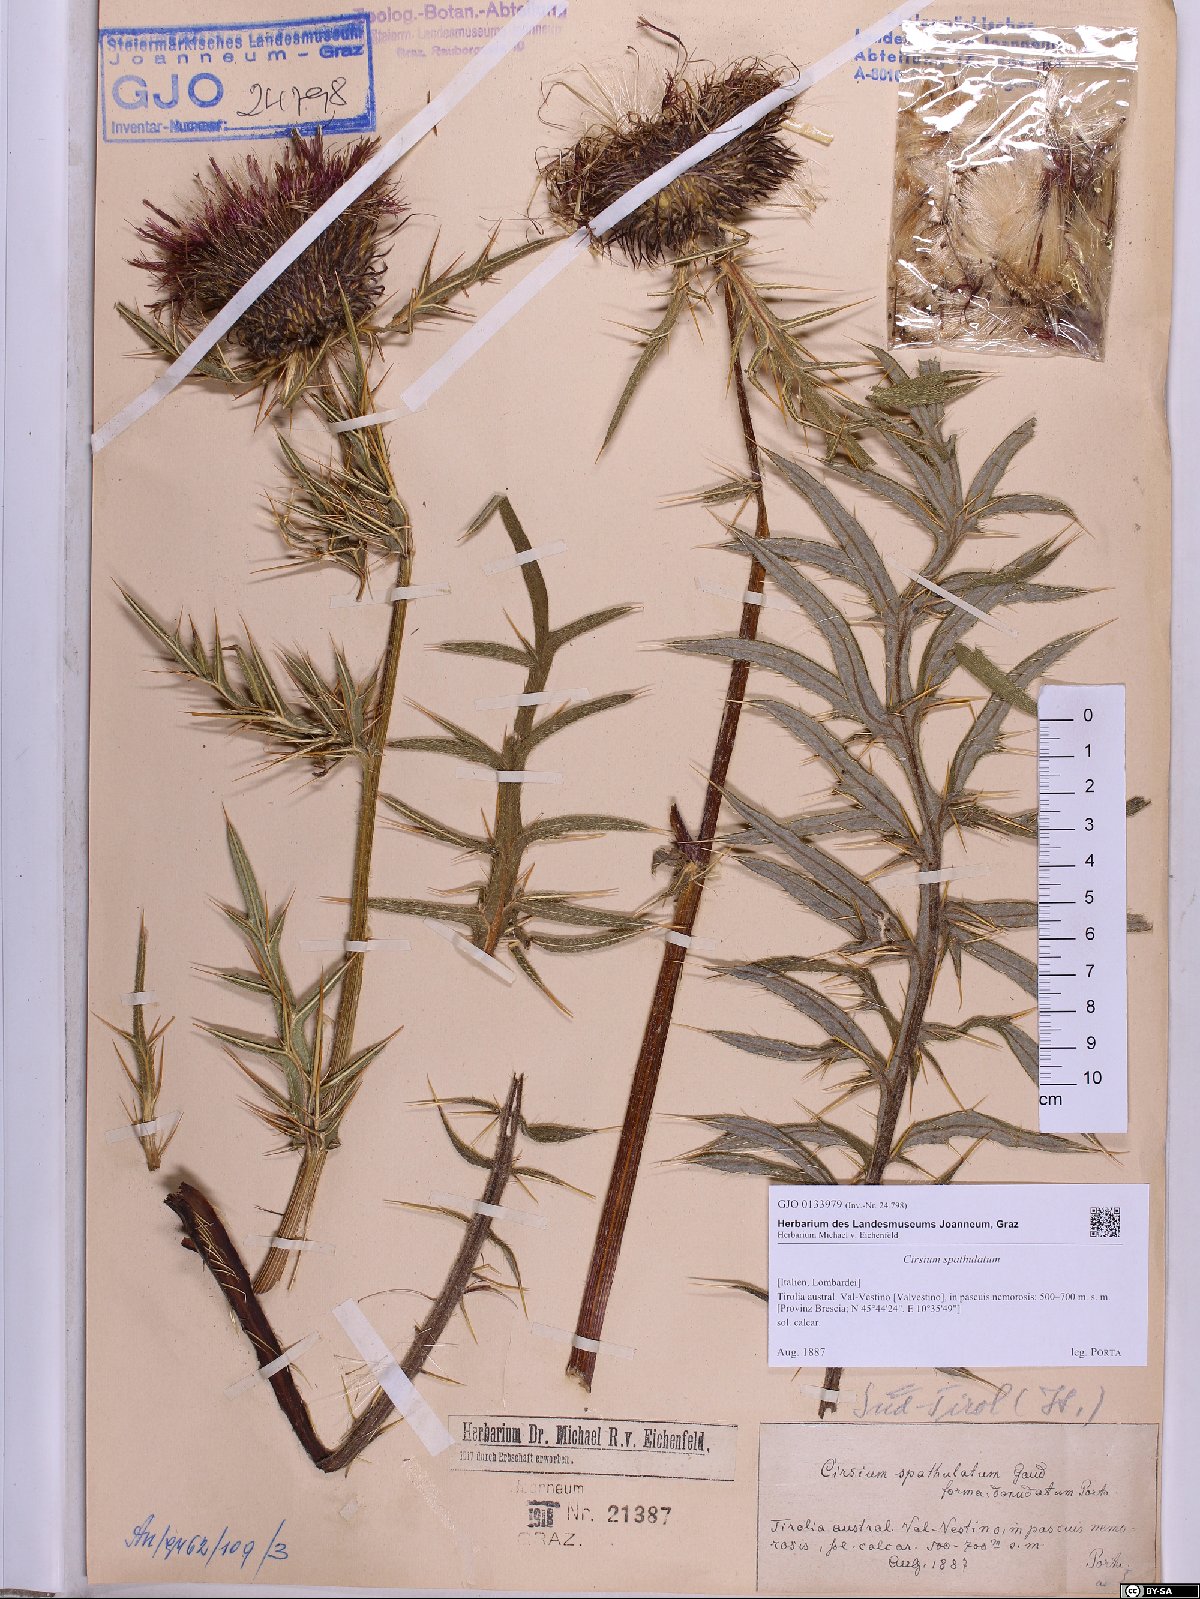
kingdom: Plantae
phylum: Tracheophyta
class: Magnoliopsida
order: Asterales
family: Asteraceae
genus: Lophiolepis
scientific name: Lophiolepis spathulata
